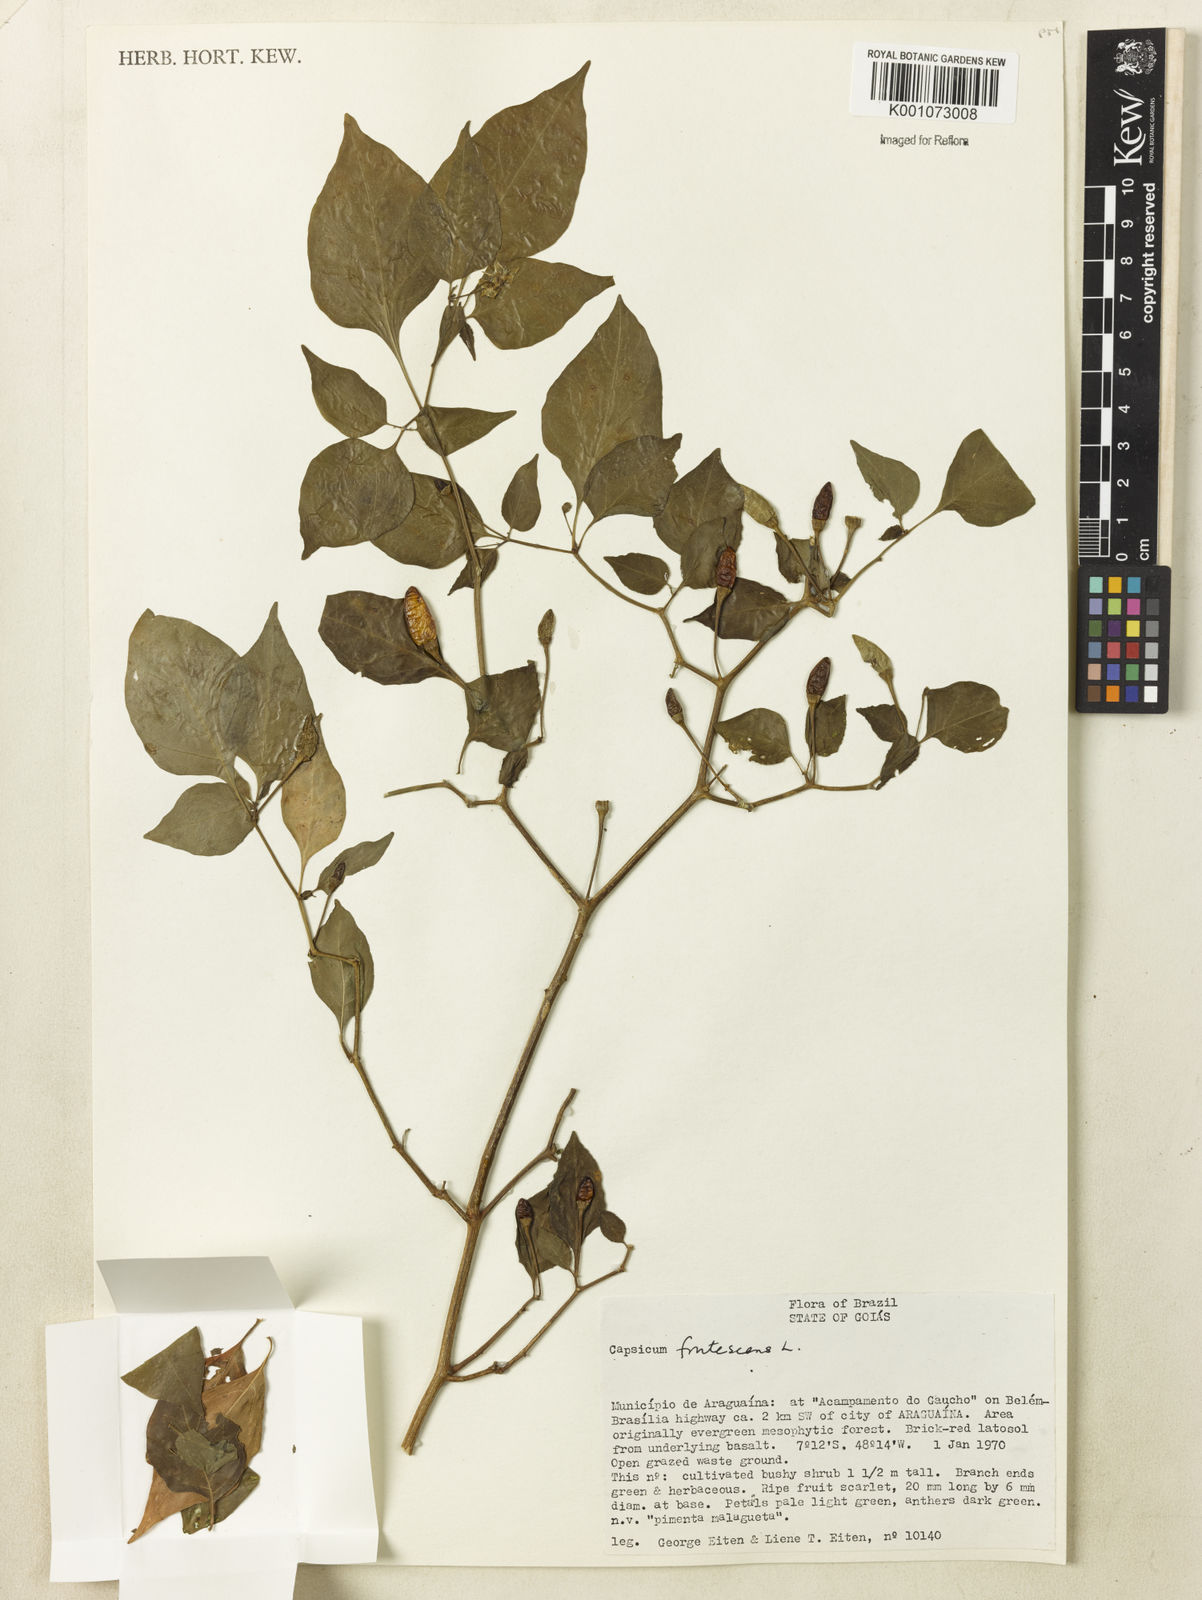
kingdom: Plantae
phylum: Tracheophyta
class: Magnoliopsida
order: Solanales
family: Solanaceae
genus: Capsicum
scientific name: Capsicum frutescens
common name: Bird pepper
